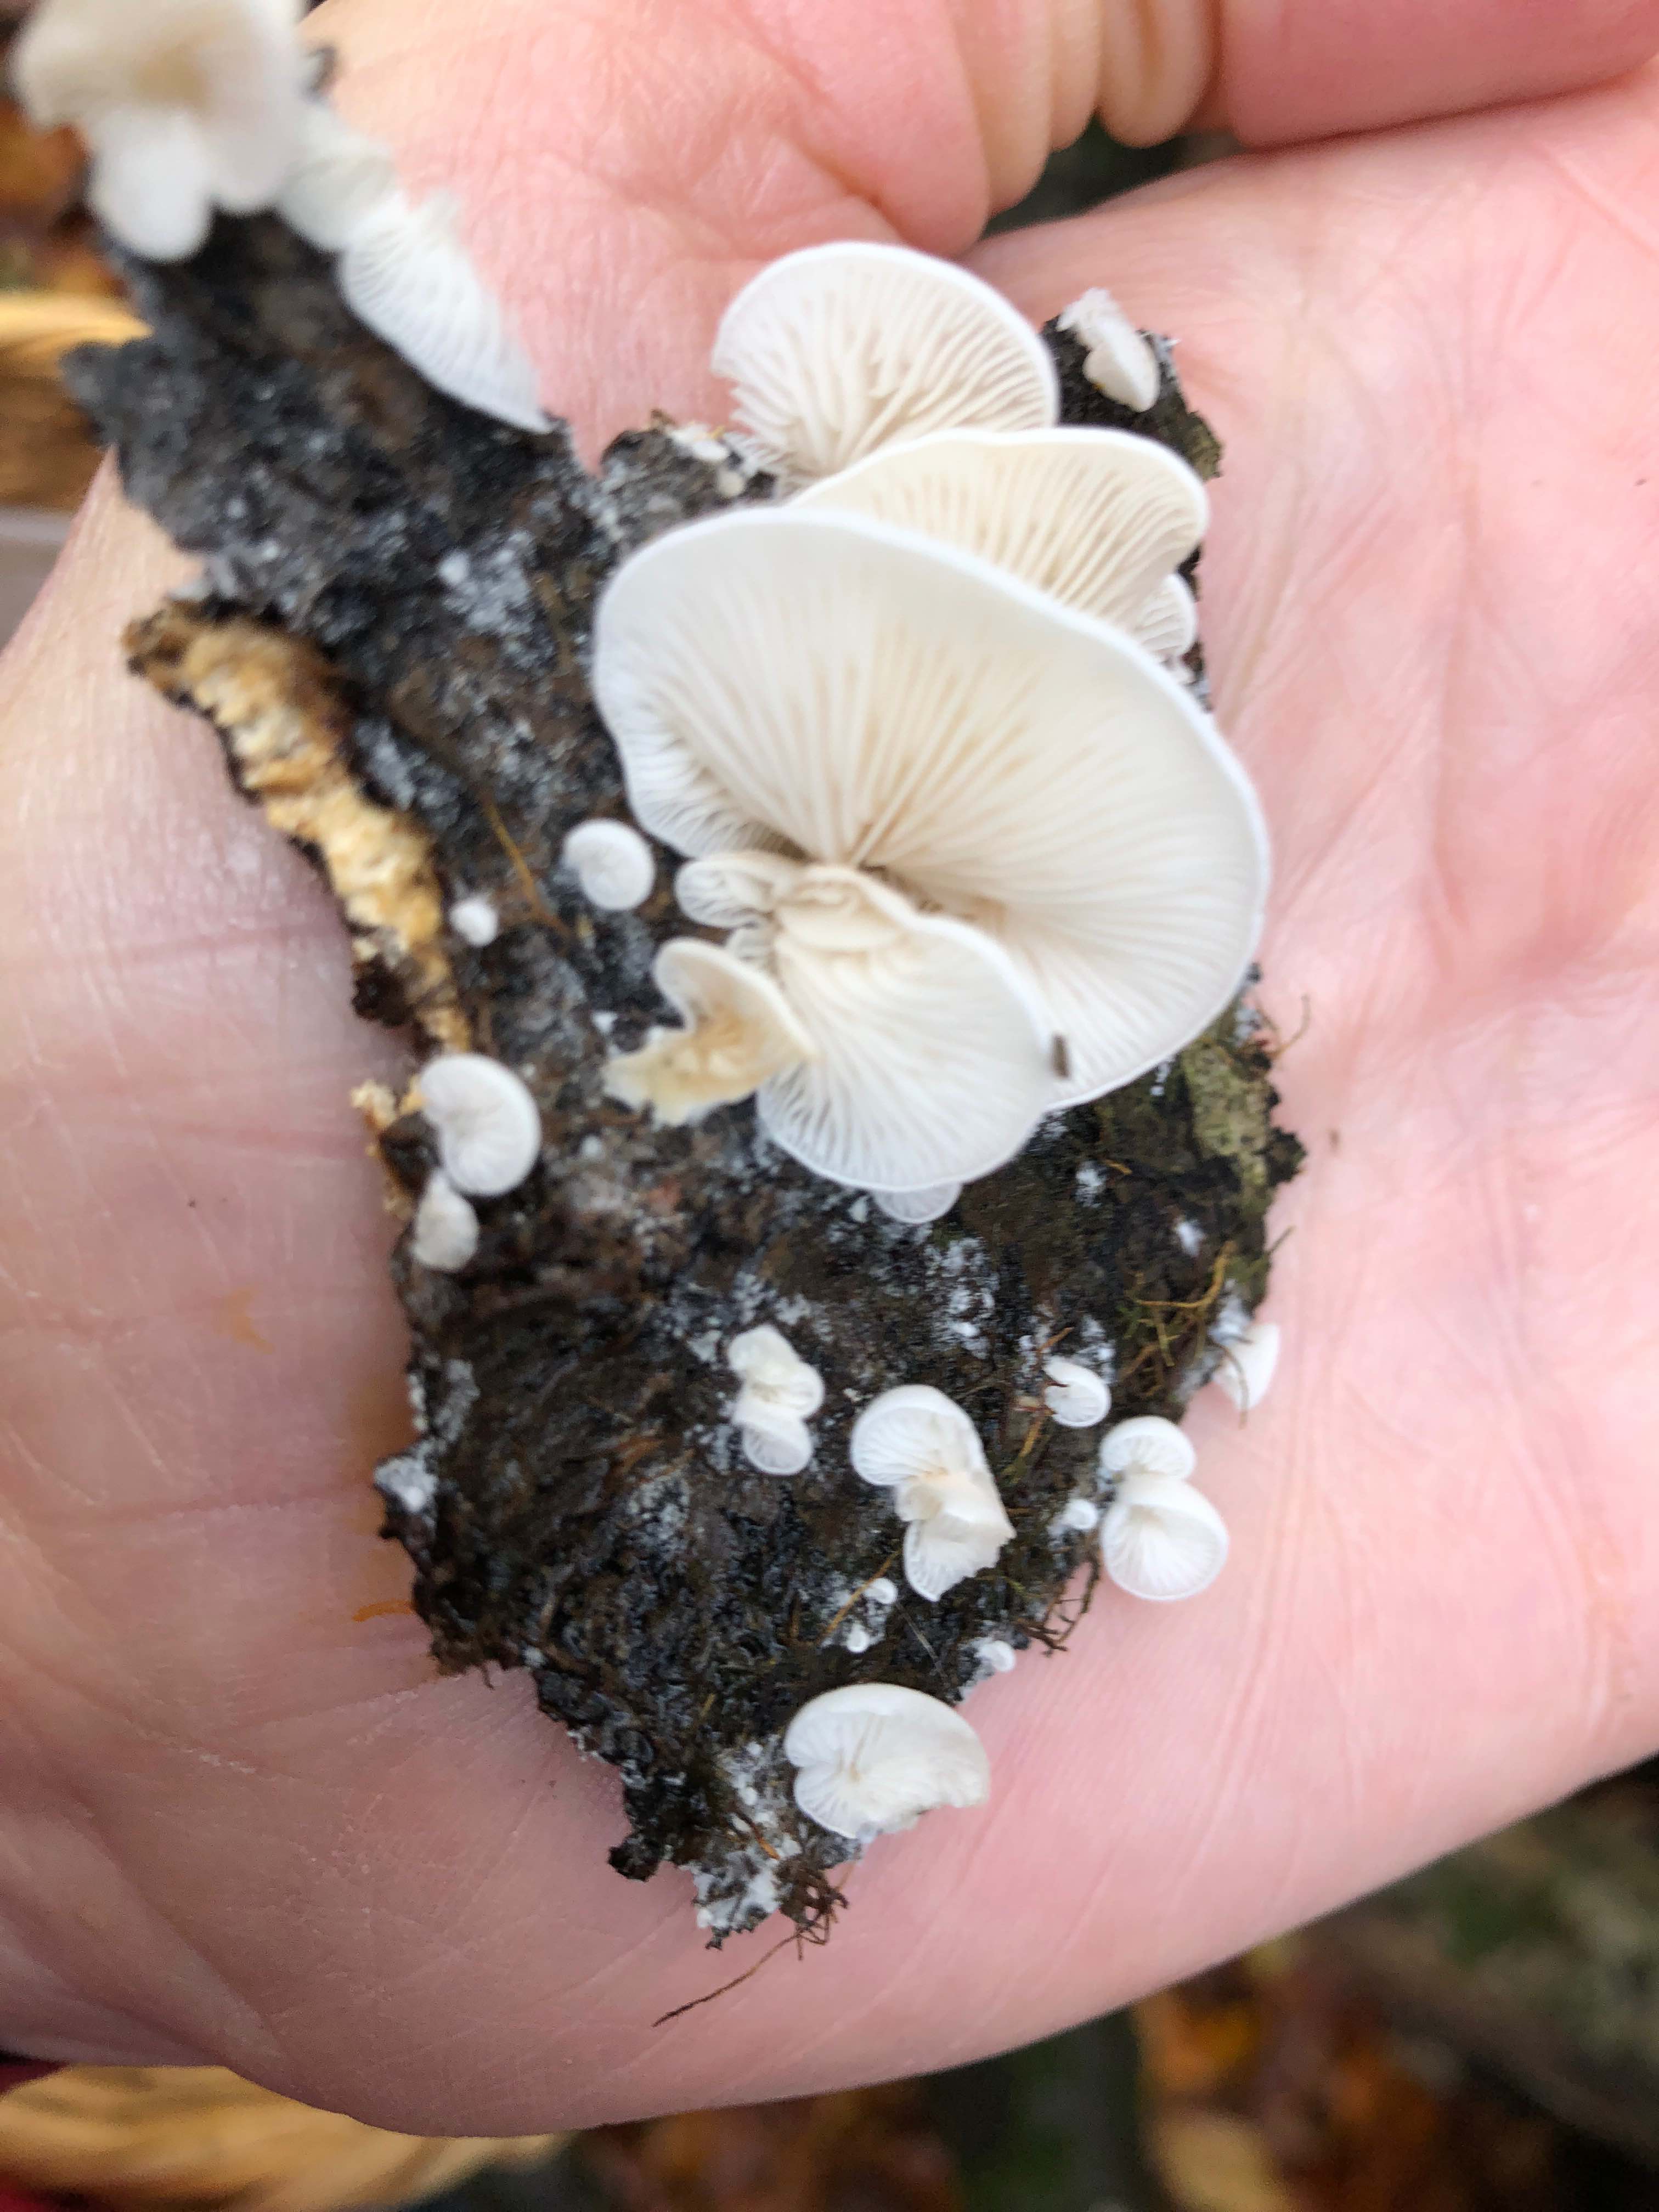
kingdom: Fungi
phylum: Basidiomycota
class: Agaricomycetes
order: Agaricales
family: Entolomataceae
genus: Clitopilus
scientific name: Clitopilus hobsonii
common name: Miller's oysterling
